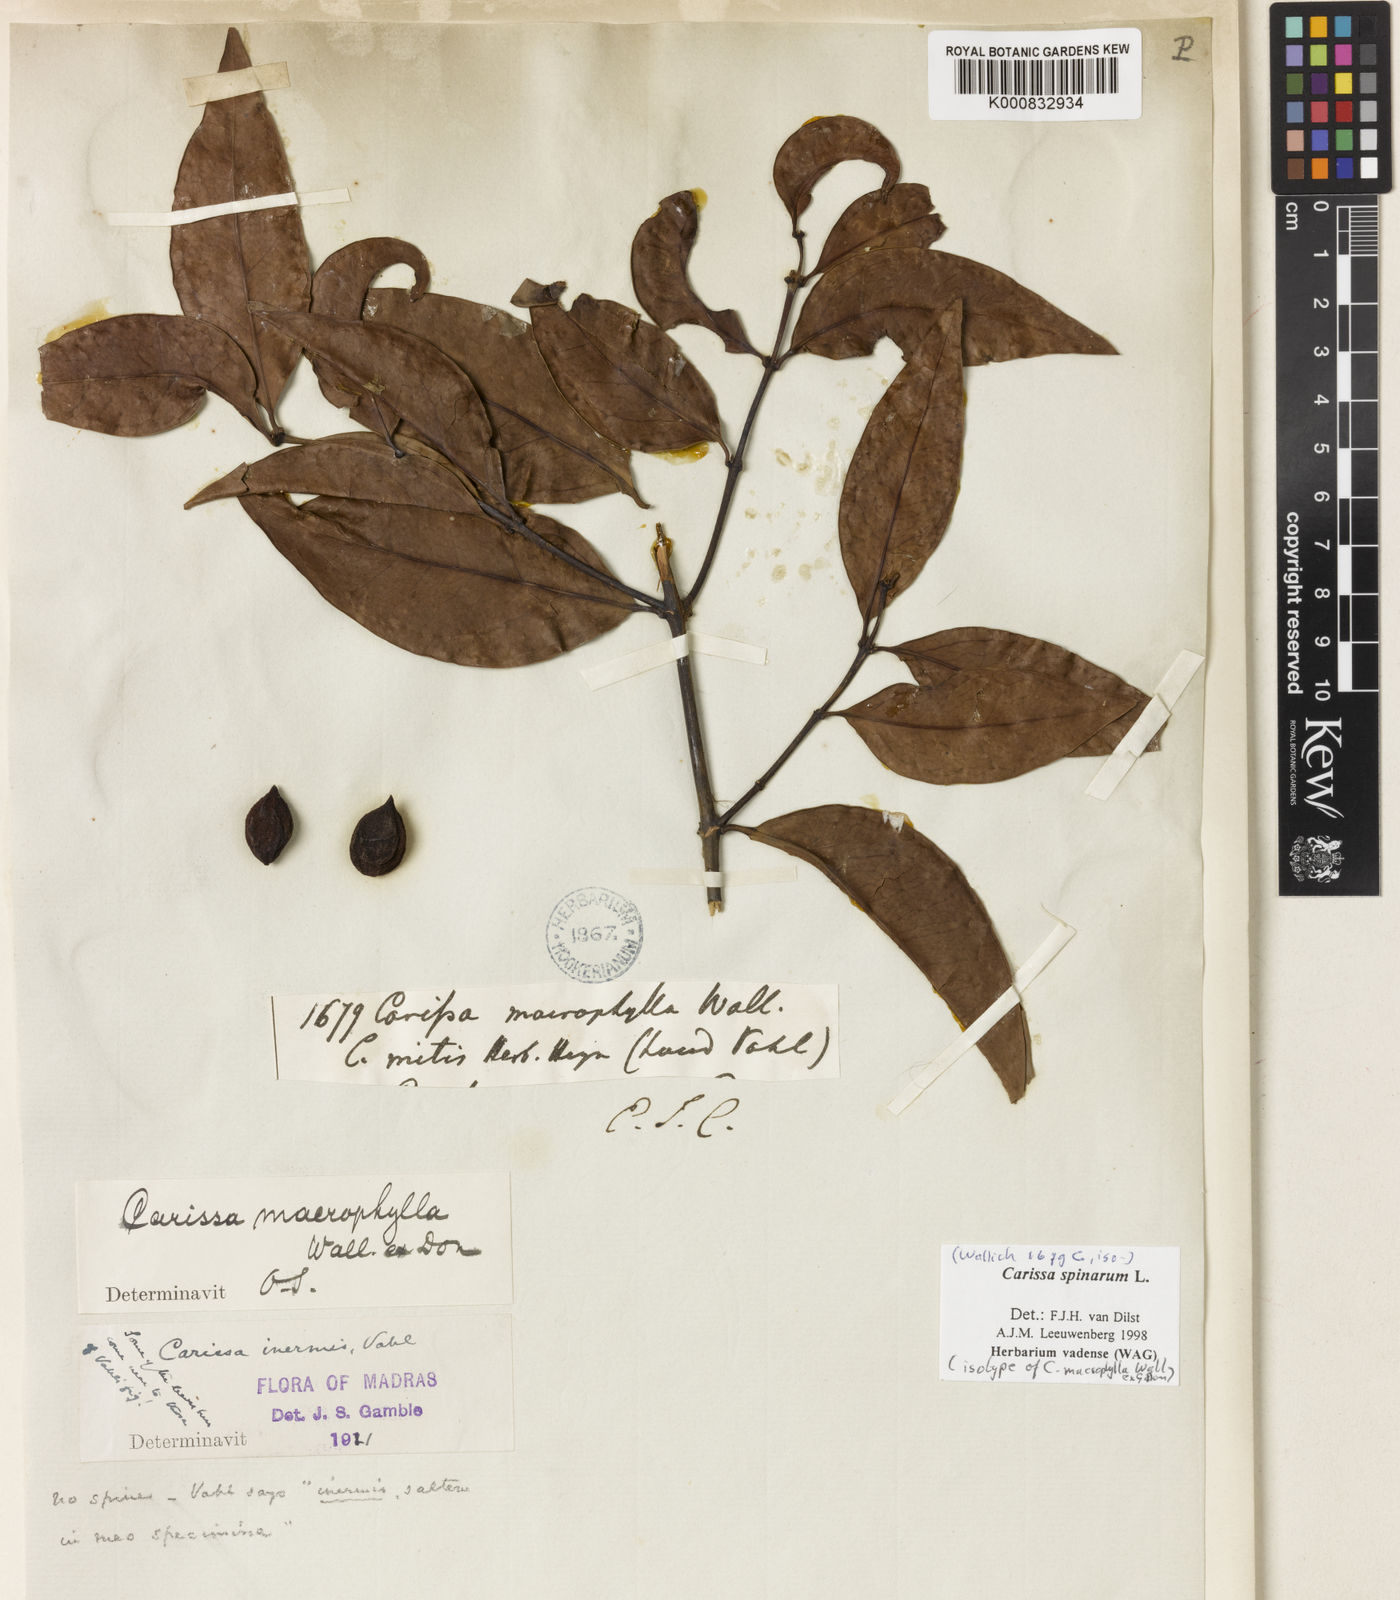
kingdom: Plantae
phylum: Tracheophyta
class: Magnoliopsida
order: Gentianales
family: Apocynaceae
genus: Carissa
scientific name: Carissa inermis
